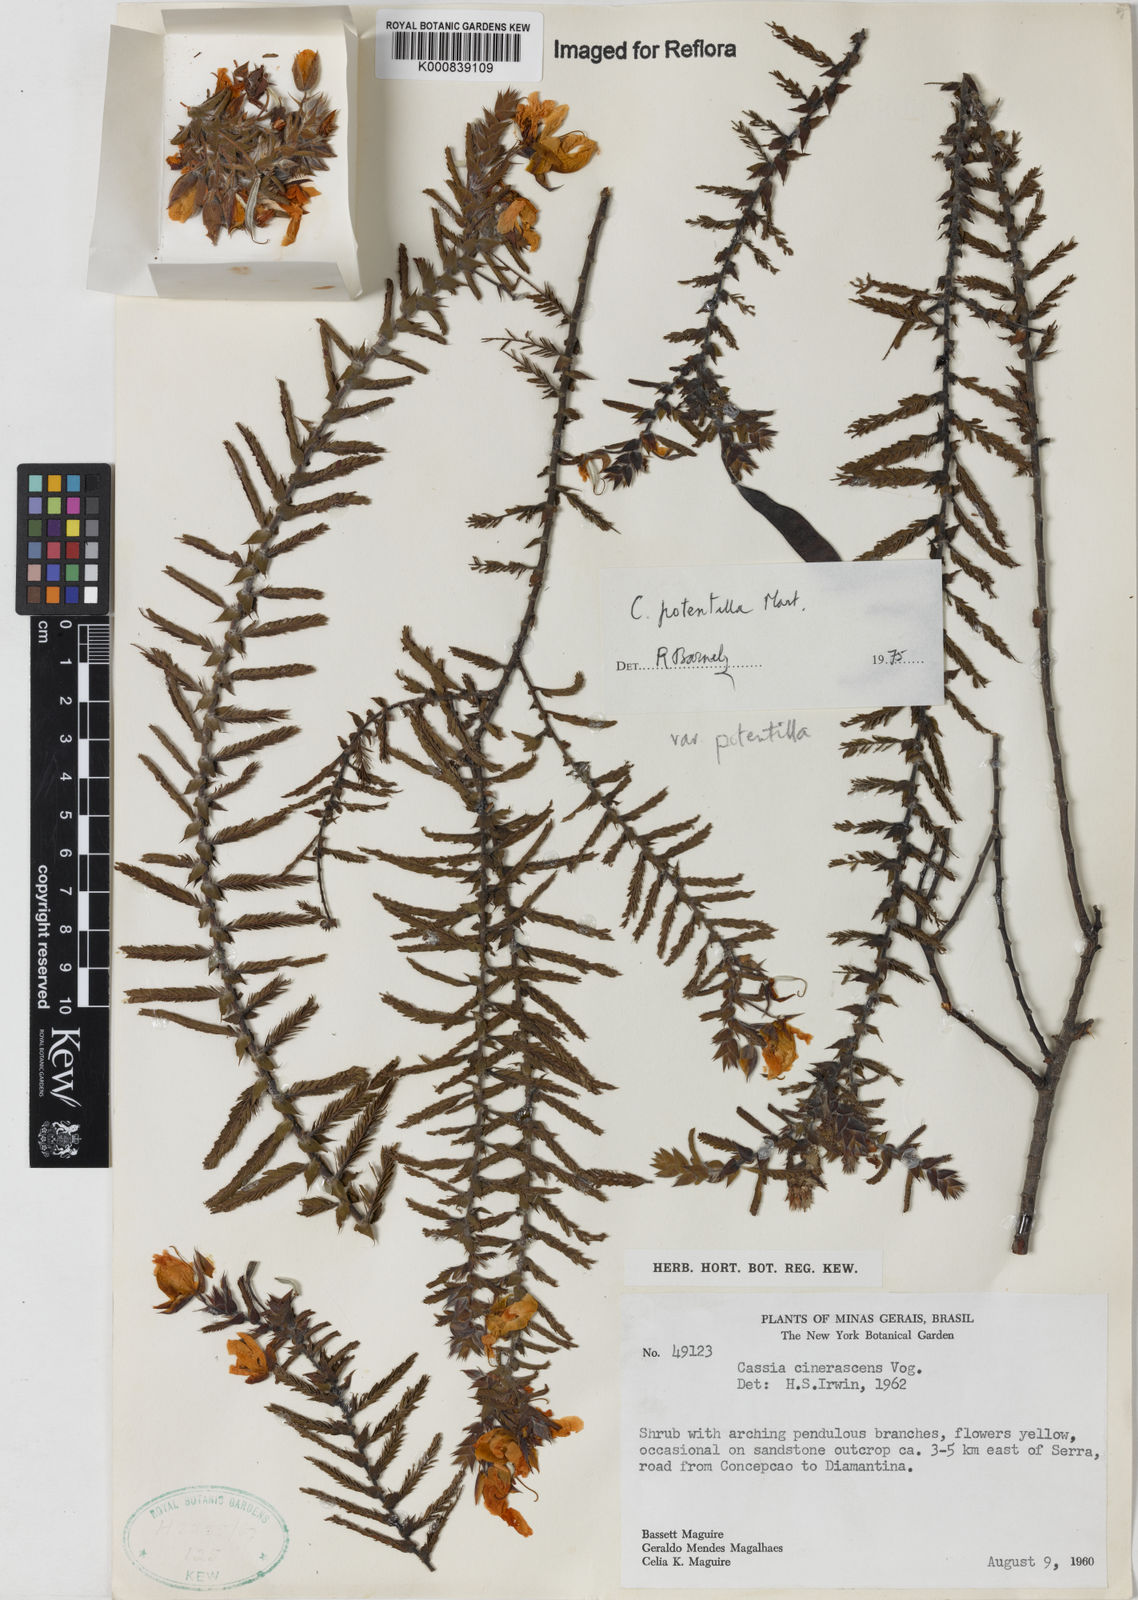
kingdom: Plantae
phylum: Tracheophyta
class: Magnoliopsida
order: Fabales
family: Fabaceae
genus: Chamaecrista
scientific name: Chamaecrista potentilla
